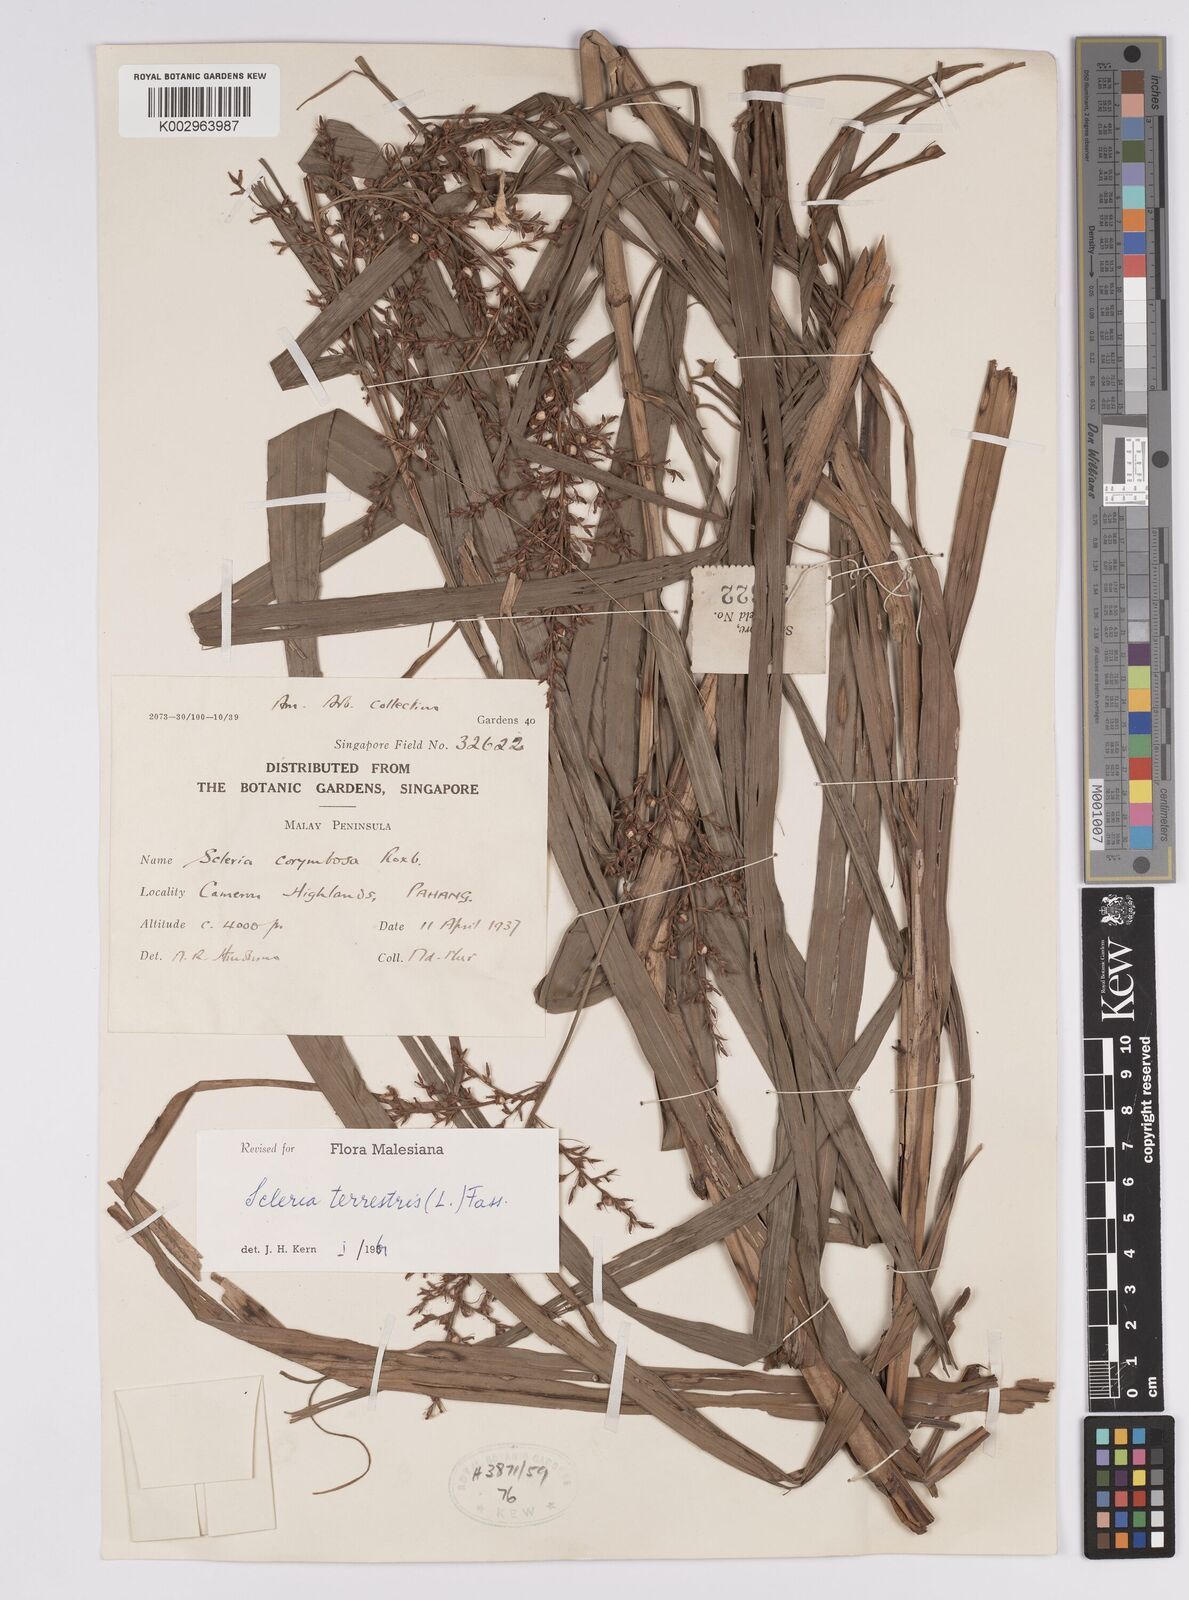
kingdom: Plantae
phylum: Tracheophyta
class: Liliopsida
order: Poales
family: Cyperaceae
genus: Scleria
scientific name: Scleria terrestris
